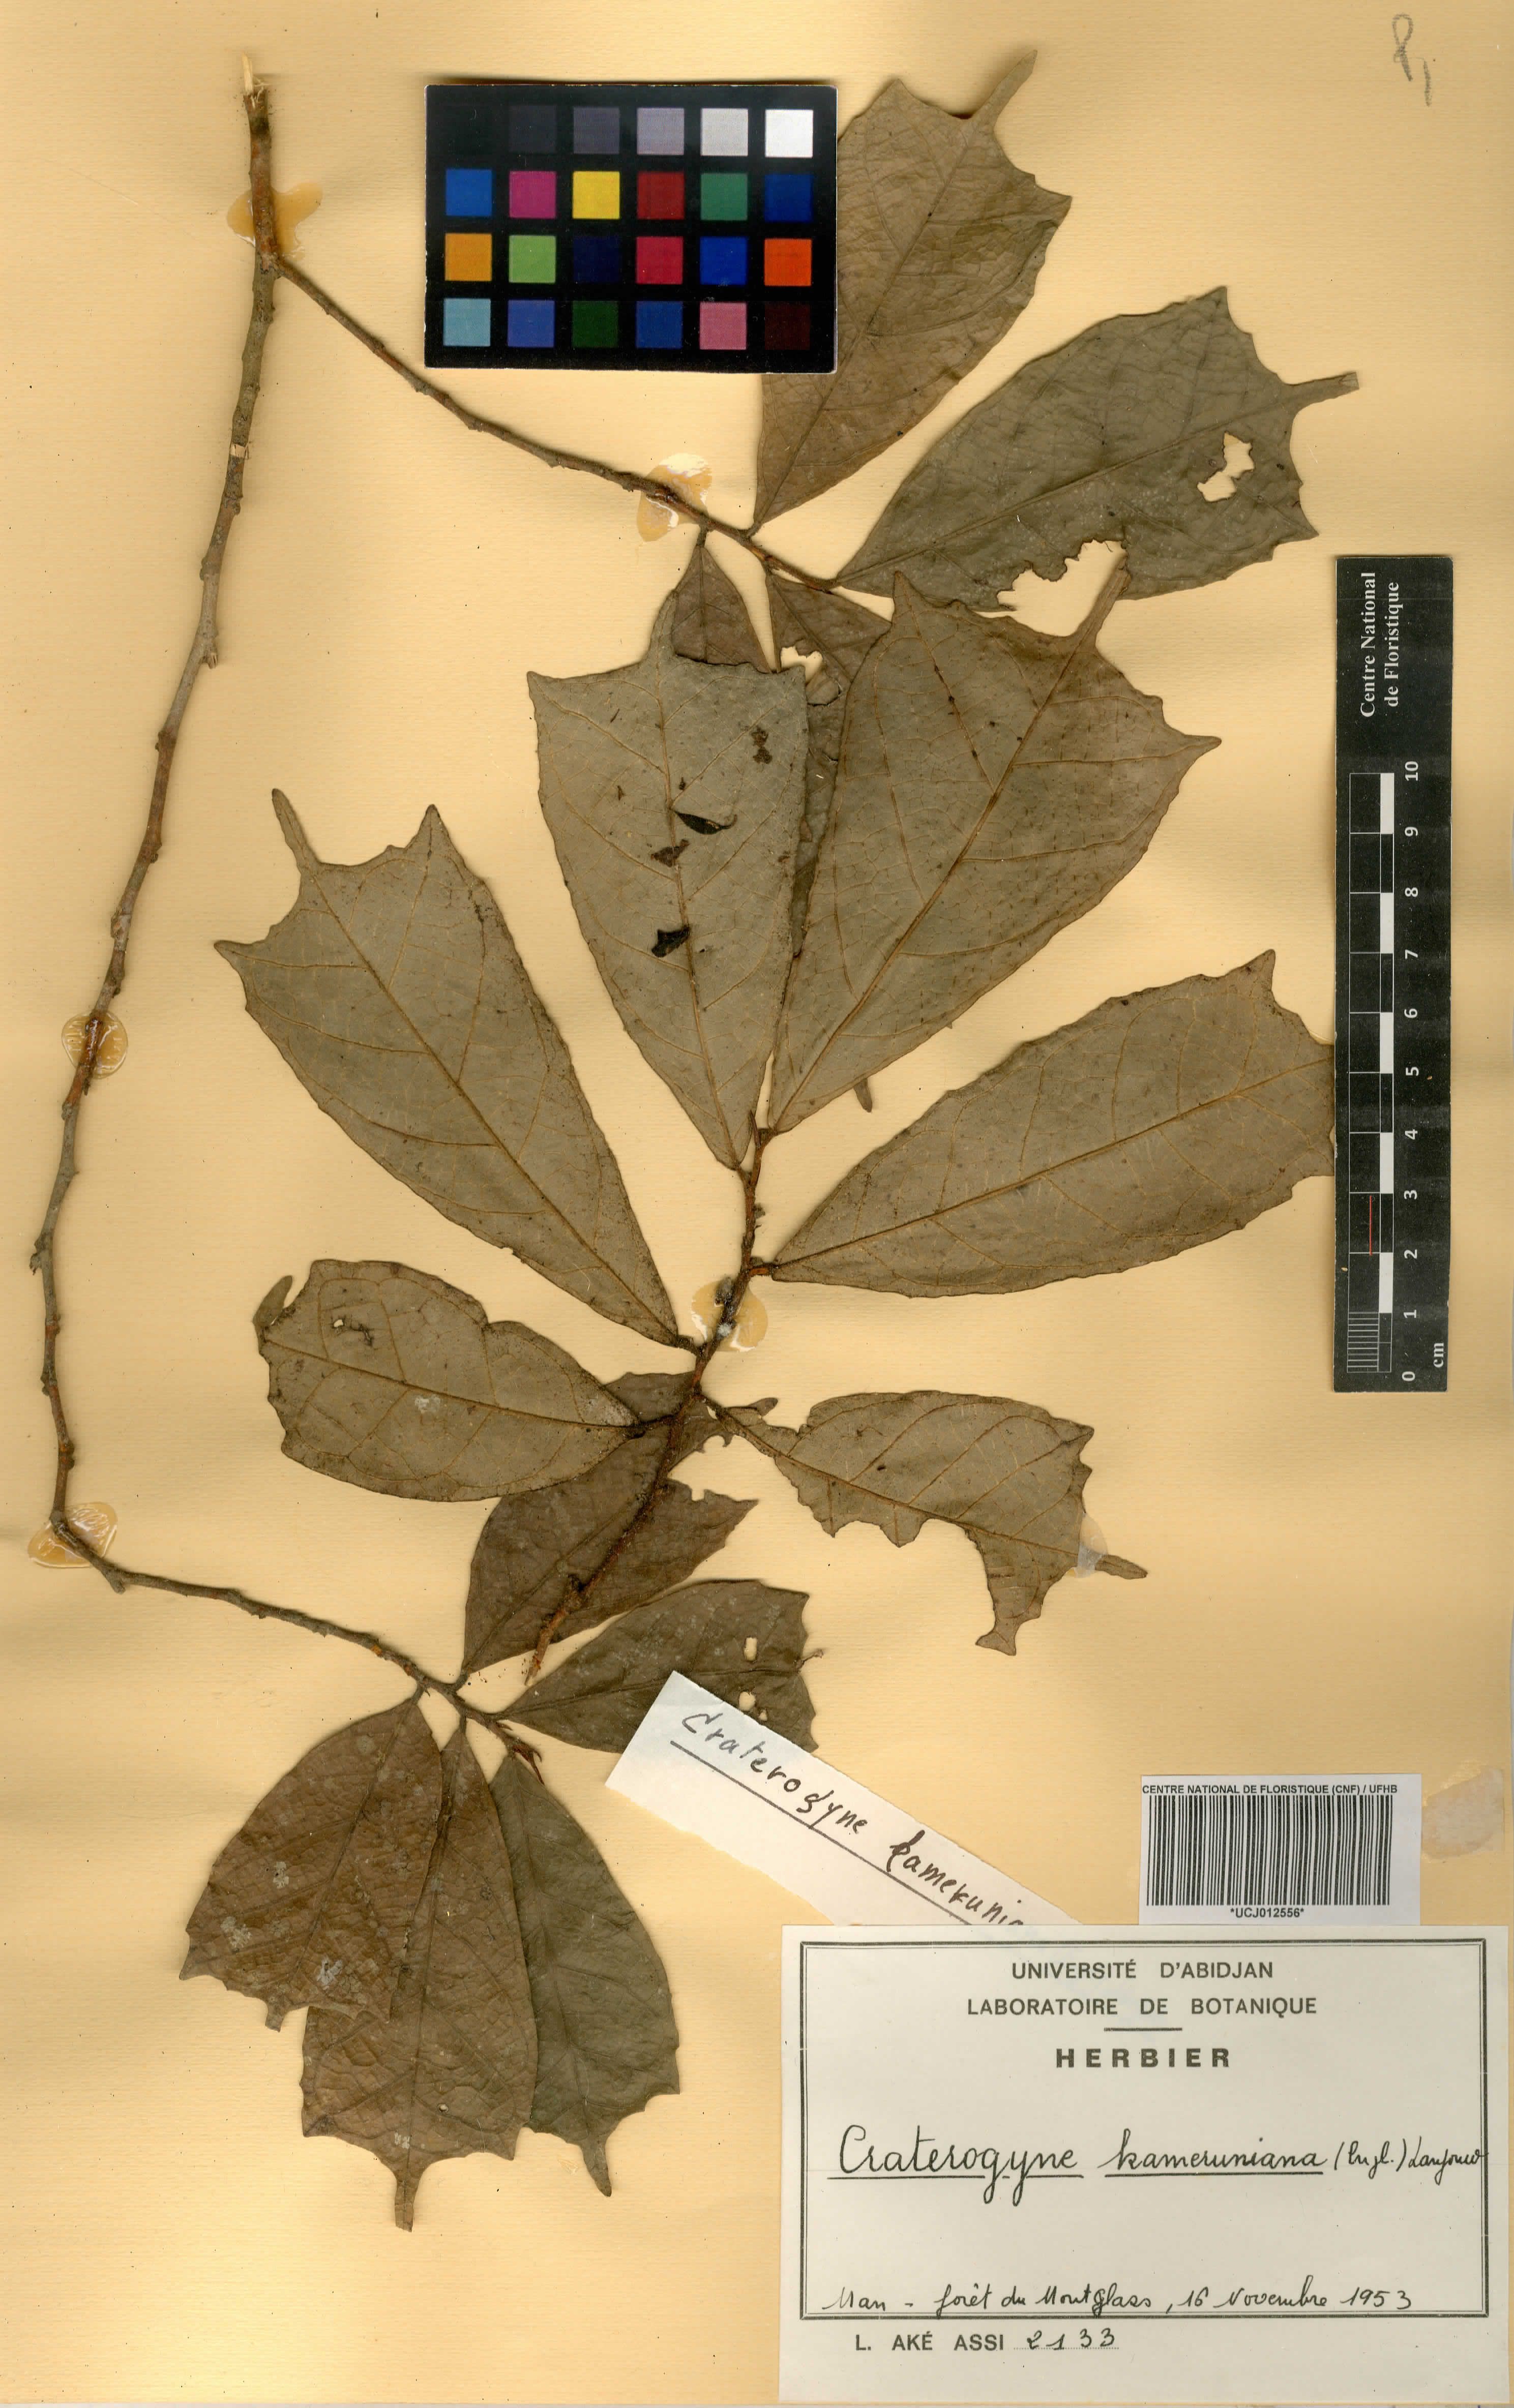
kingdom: Plantae
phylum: Tracheophyta
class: Magnoliopsida
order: Rosales
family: Moraceae
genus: Dorstenia
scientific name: Dorstenia kameruniana
